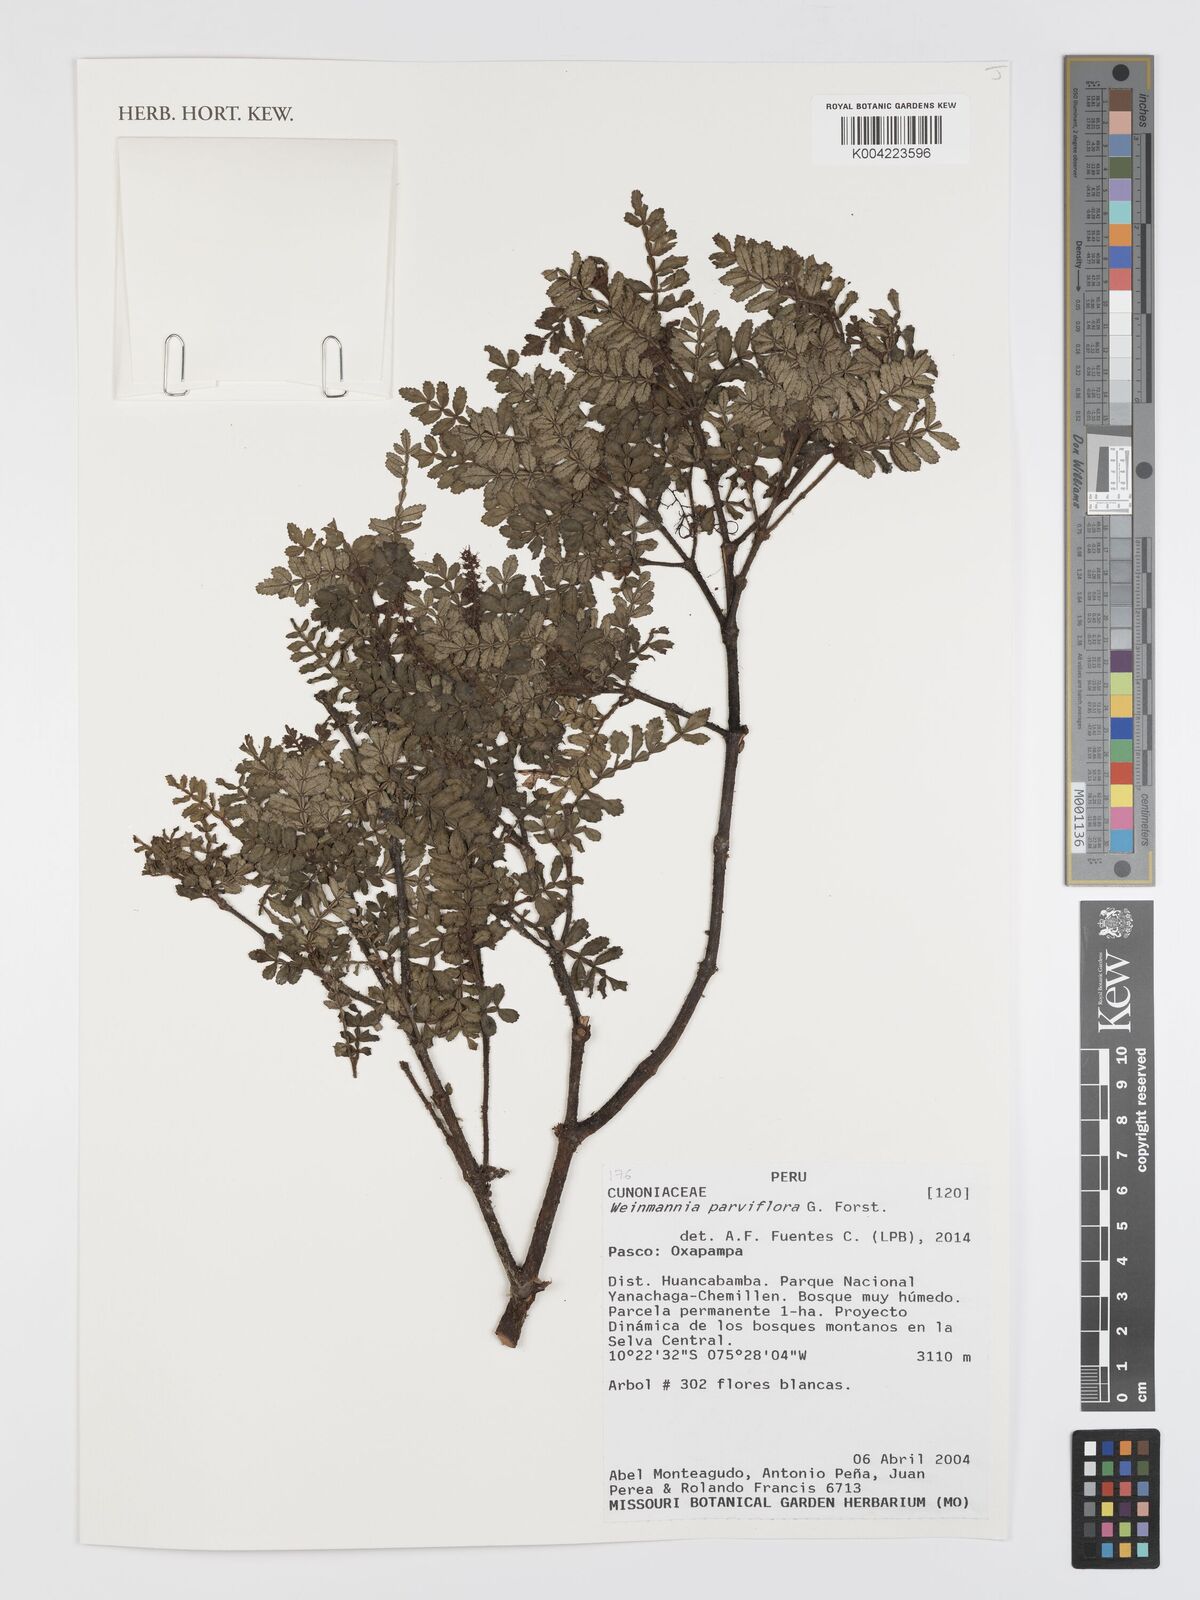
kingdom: Plantae
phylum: Tracheophyta
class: Magnoliopsida
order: Oxalidales
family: Cunoniaceae
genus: Weinmannia
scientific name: Weinmannia
